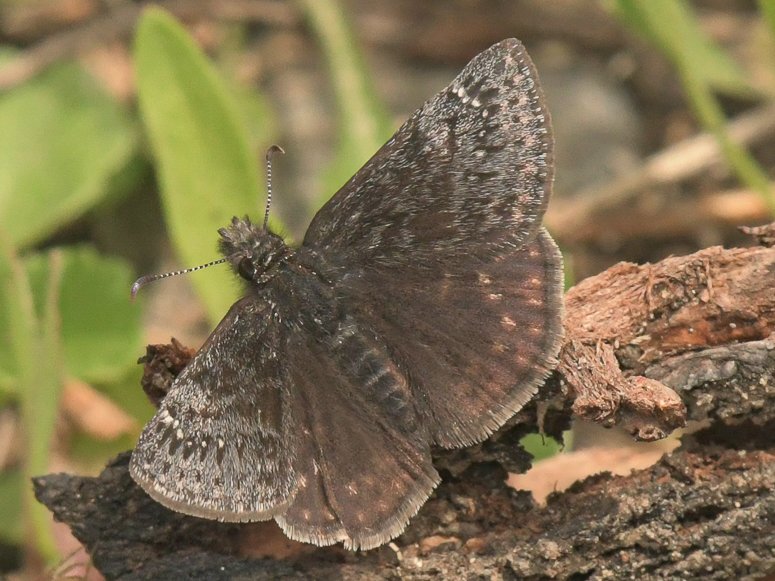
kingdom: Animalia
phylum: Arthropoda
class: Insecta
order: Lepidoptera
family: Hesperiidae
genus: Gesta
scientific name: Gesta
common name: Persius Duskywing
